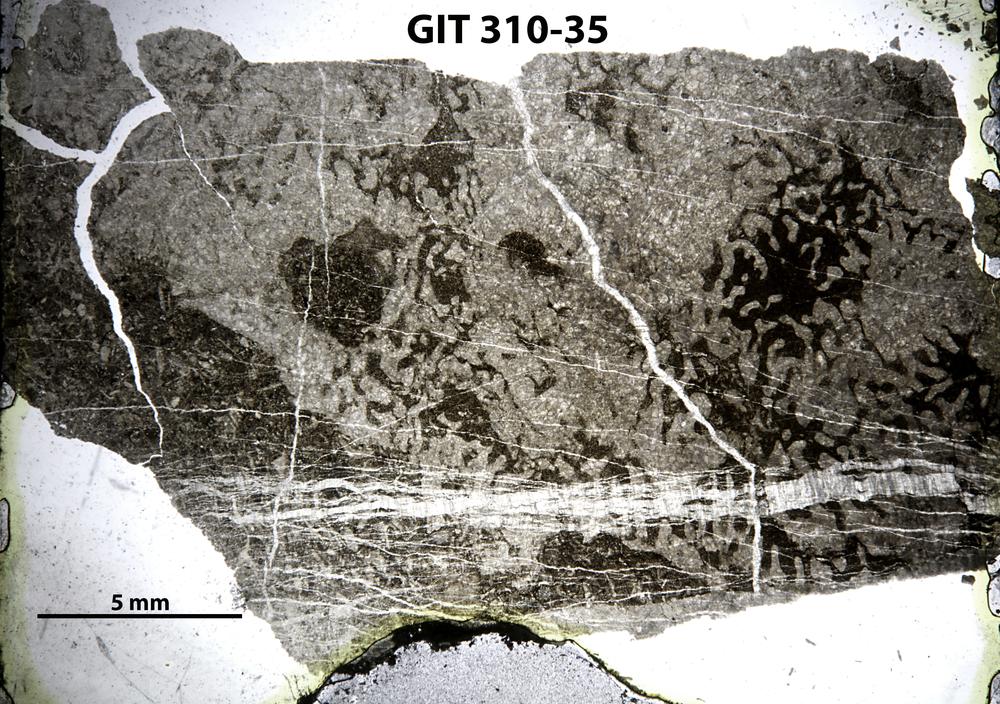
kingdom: Animalia
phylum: Porifera
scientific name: Porifera
